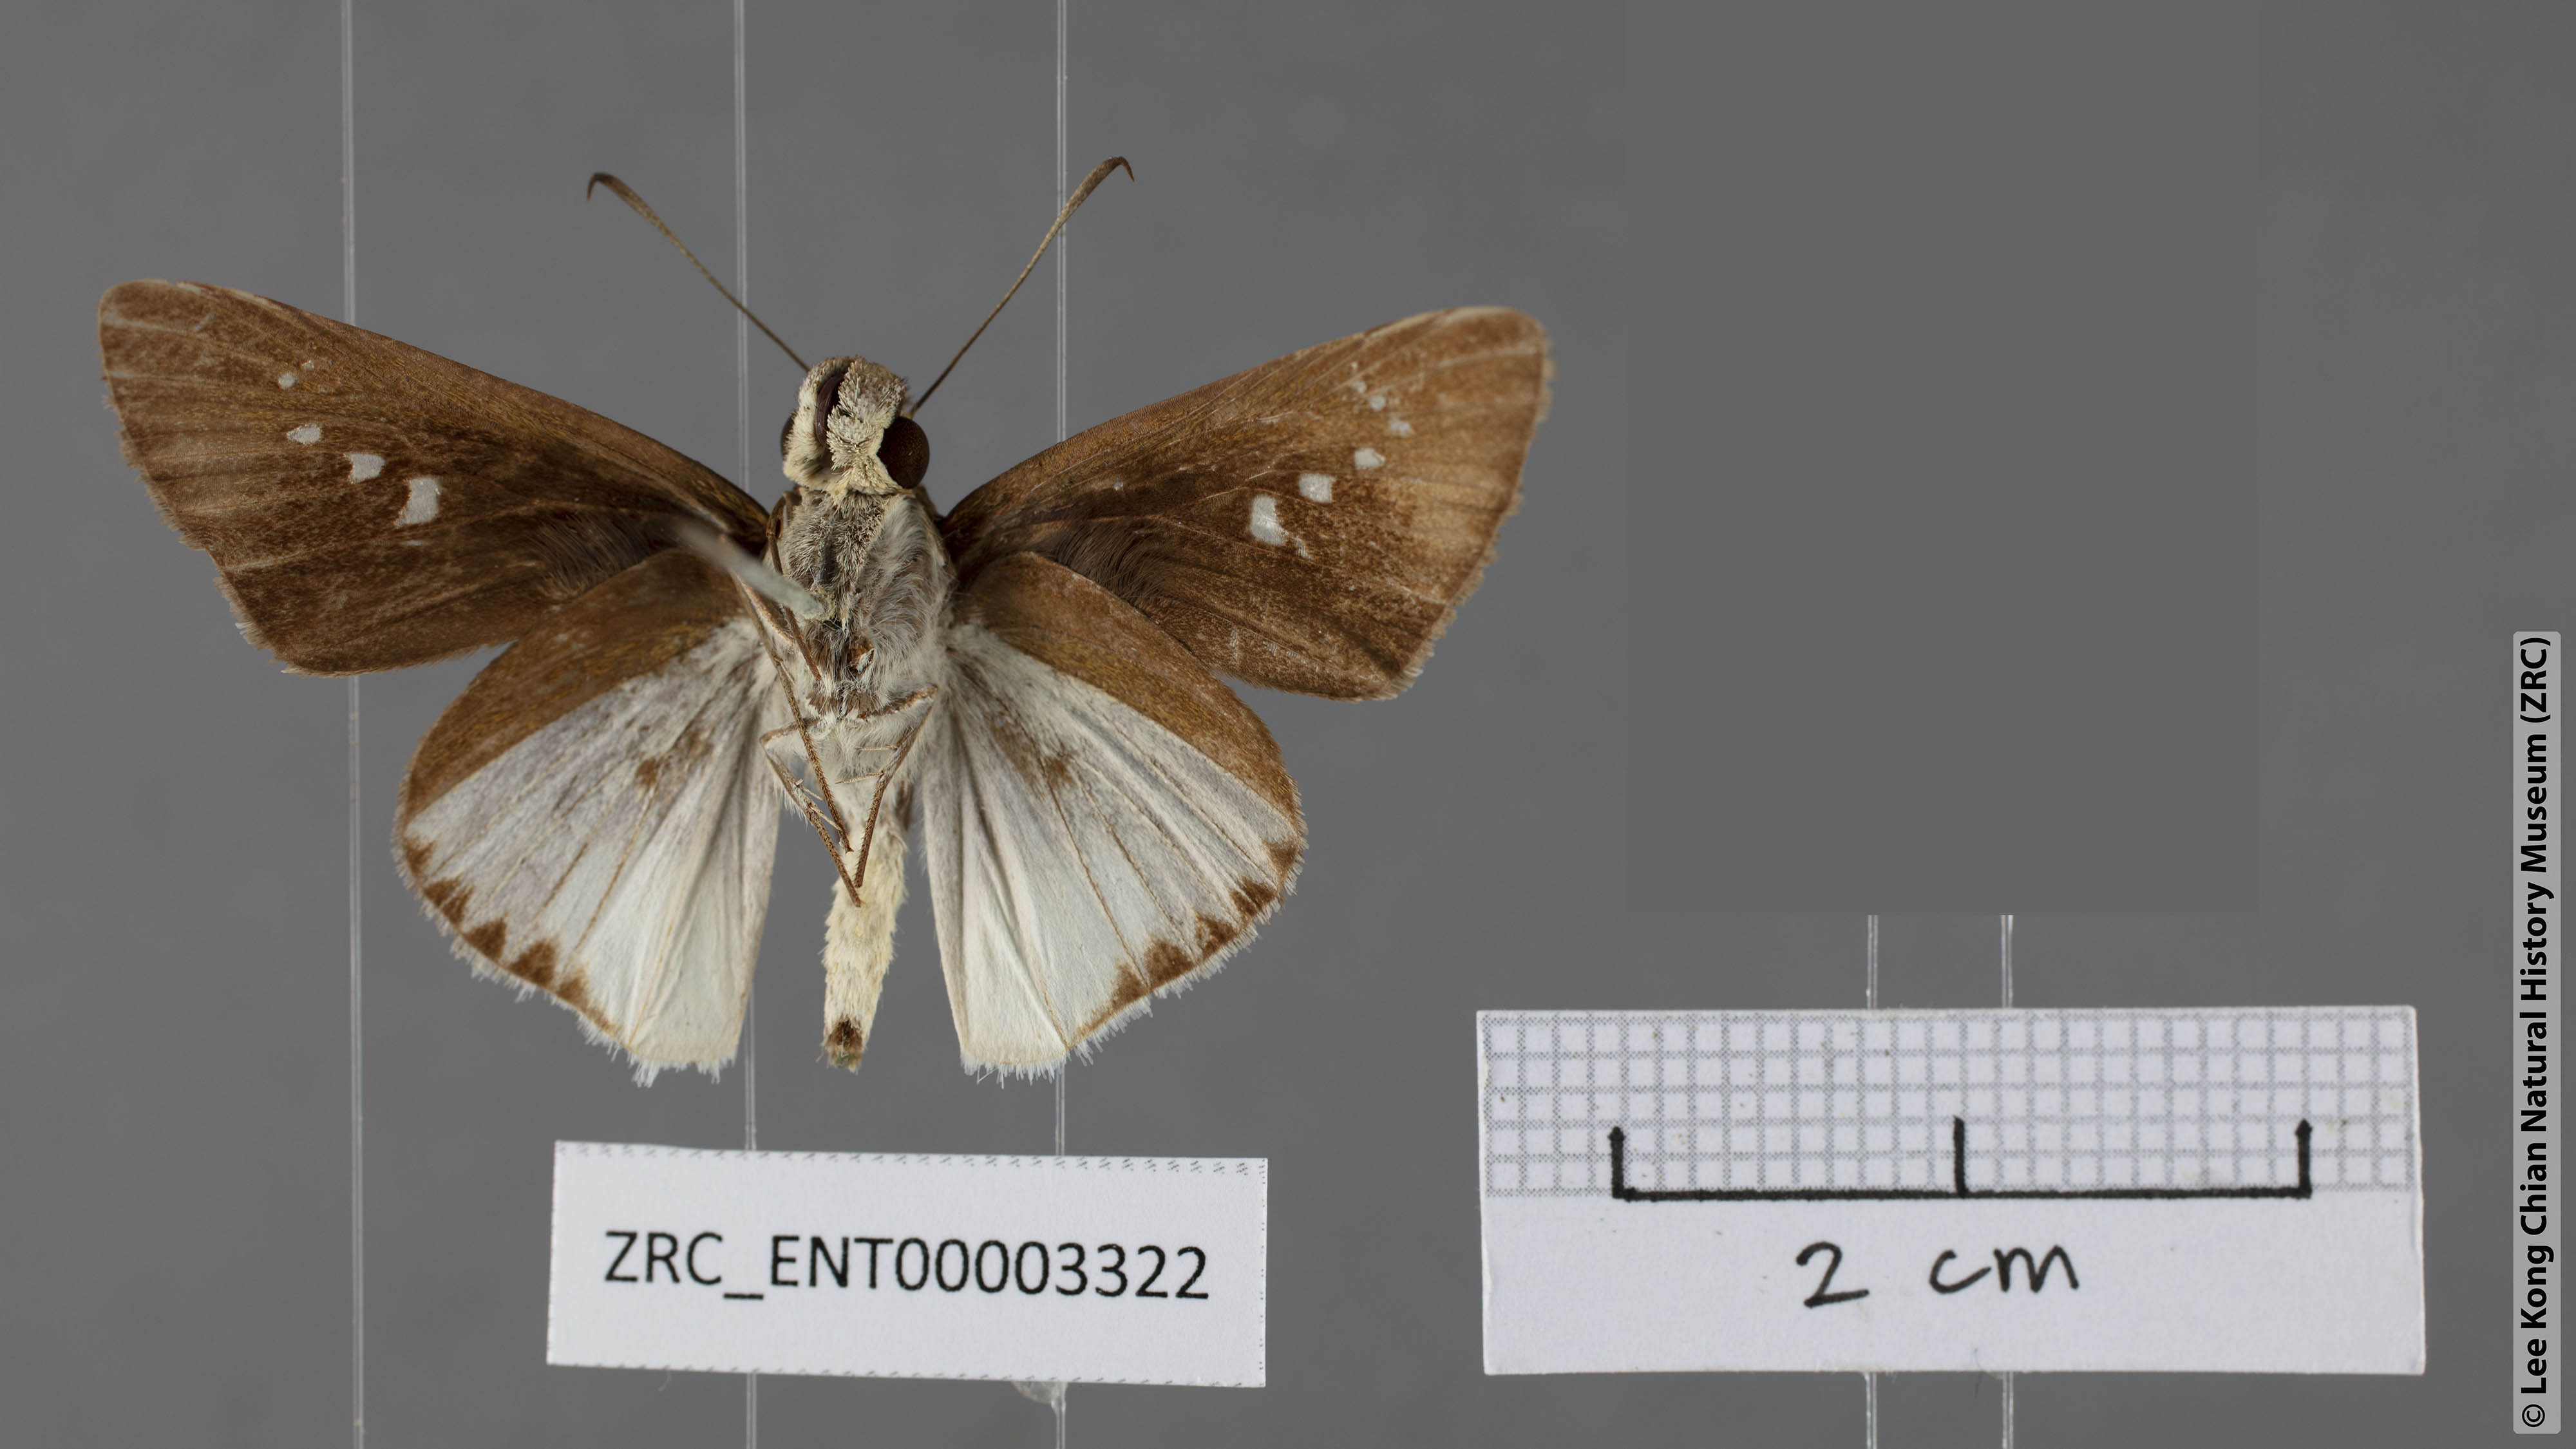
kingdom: Animalia
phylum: Arthropoda
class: Insecta
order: Lepidoptera
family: Hesperiidae
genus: Iton
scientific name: Iton semamora
